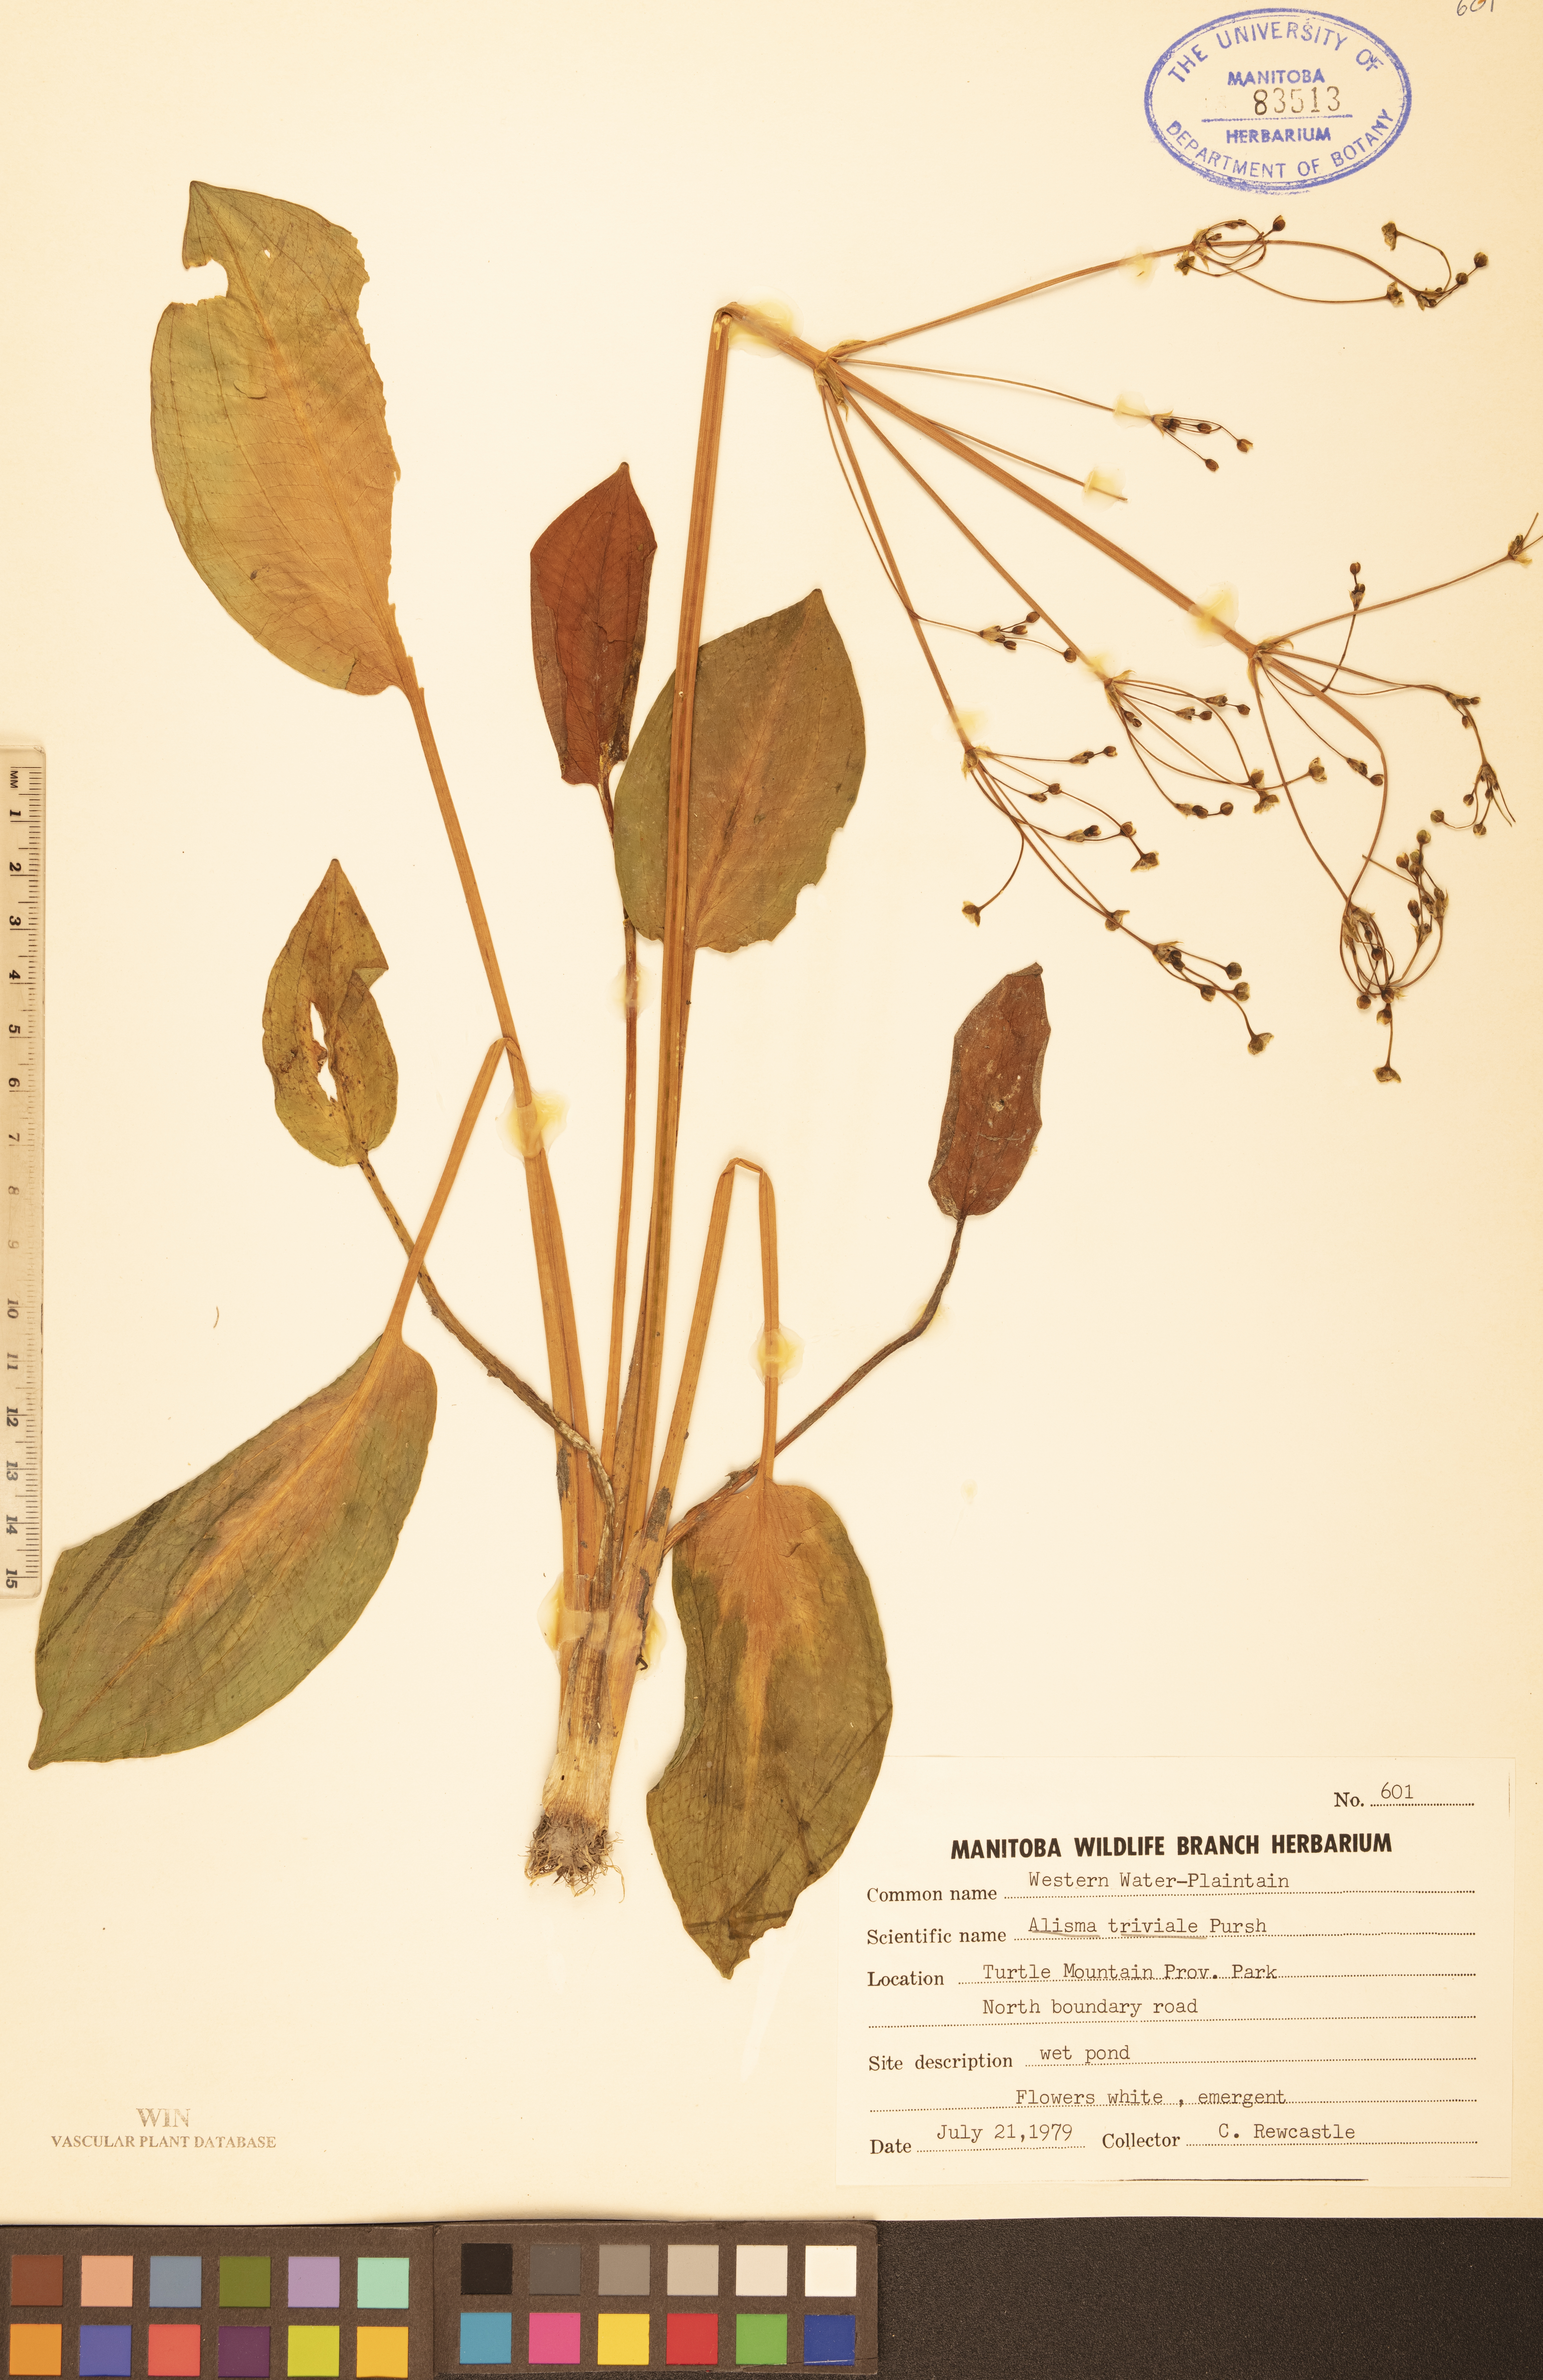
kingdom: Plantae
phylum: Tracheophyta
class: Liliopsida
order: Alismatales
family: Alismataceae
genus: Alisma
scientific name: Alisma triviale
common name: Northern water-plantain
